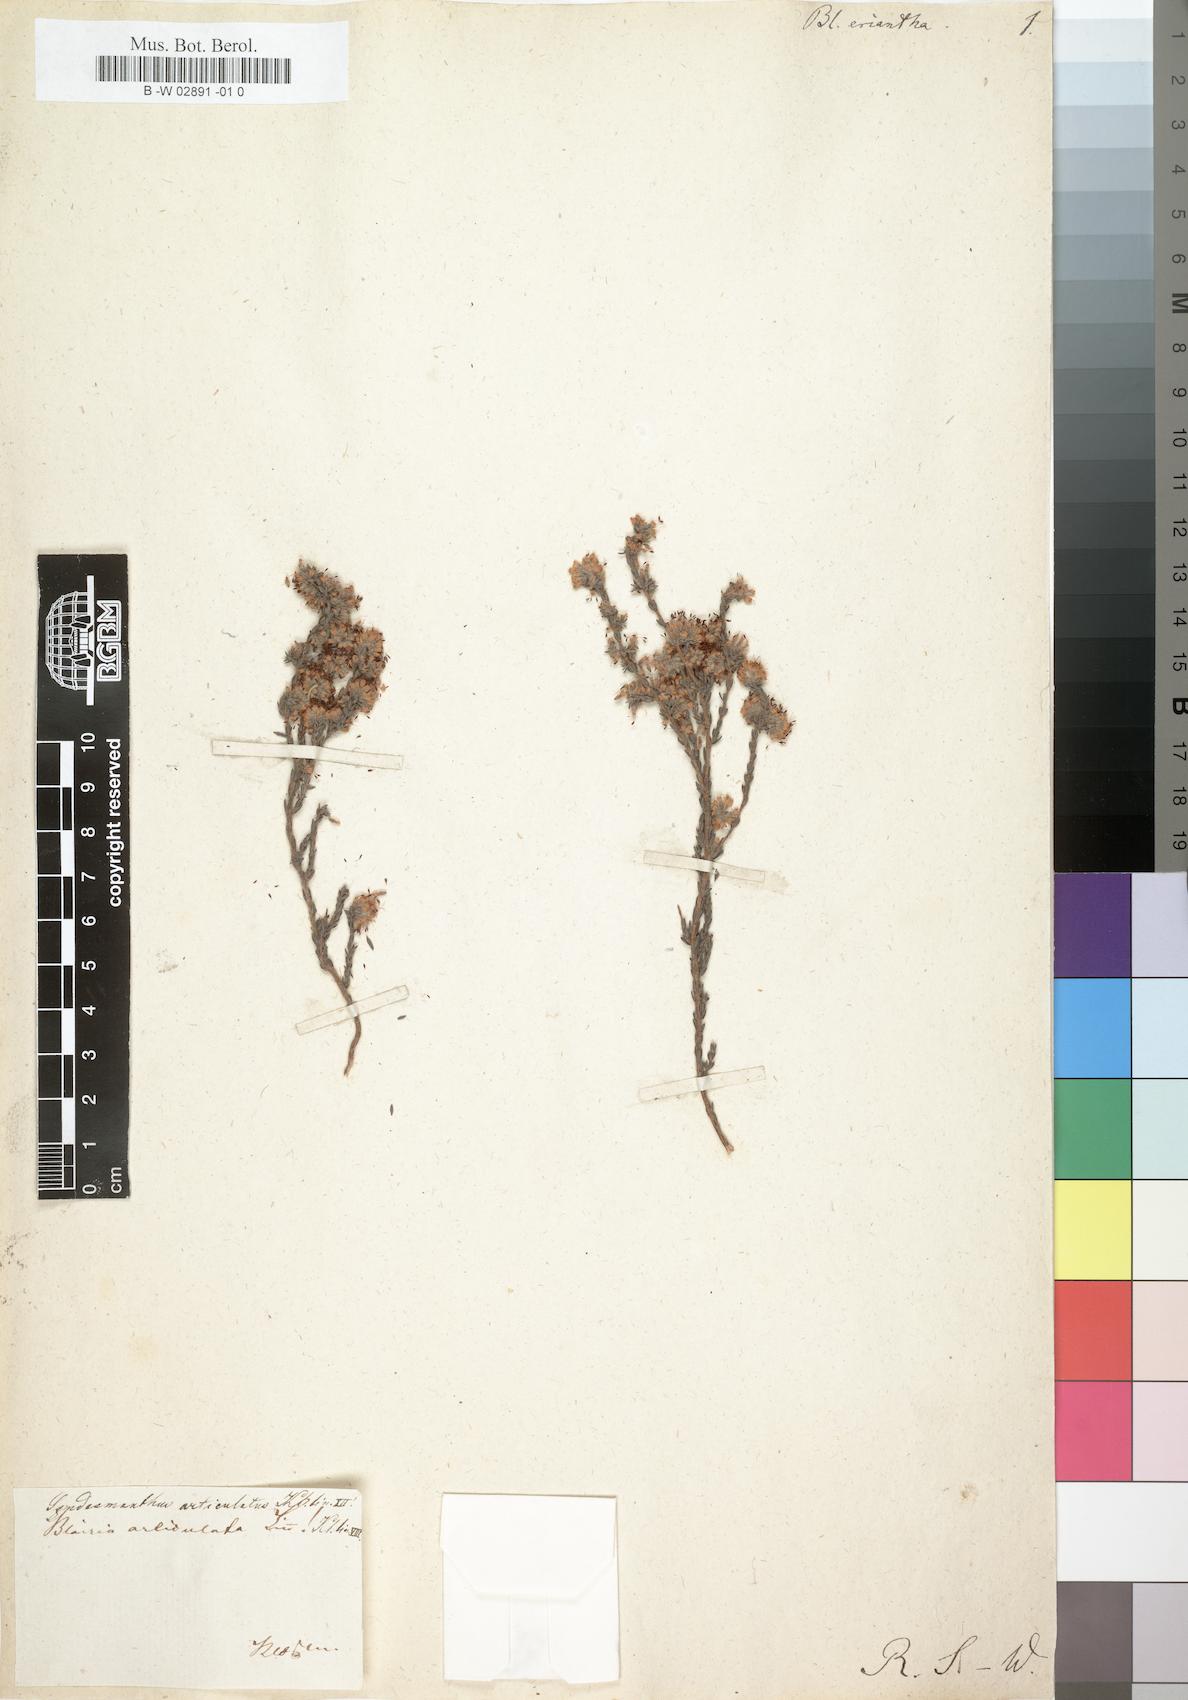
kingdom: Plantae
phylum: Tracheophyta
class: Magnoliopsida
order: Ericales
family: Ericaceae
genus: Erica
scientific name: Erica similis
